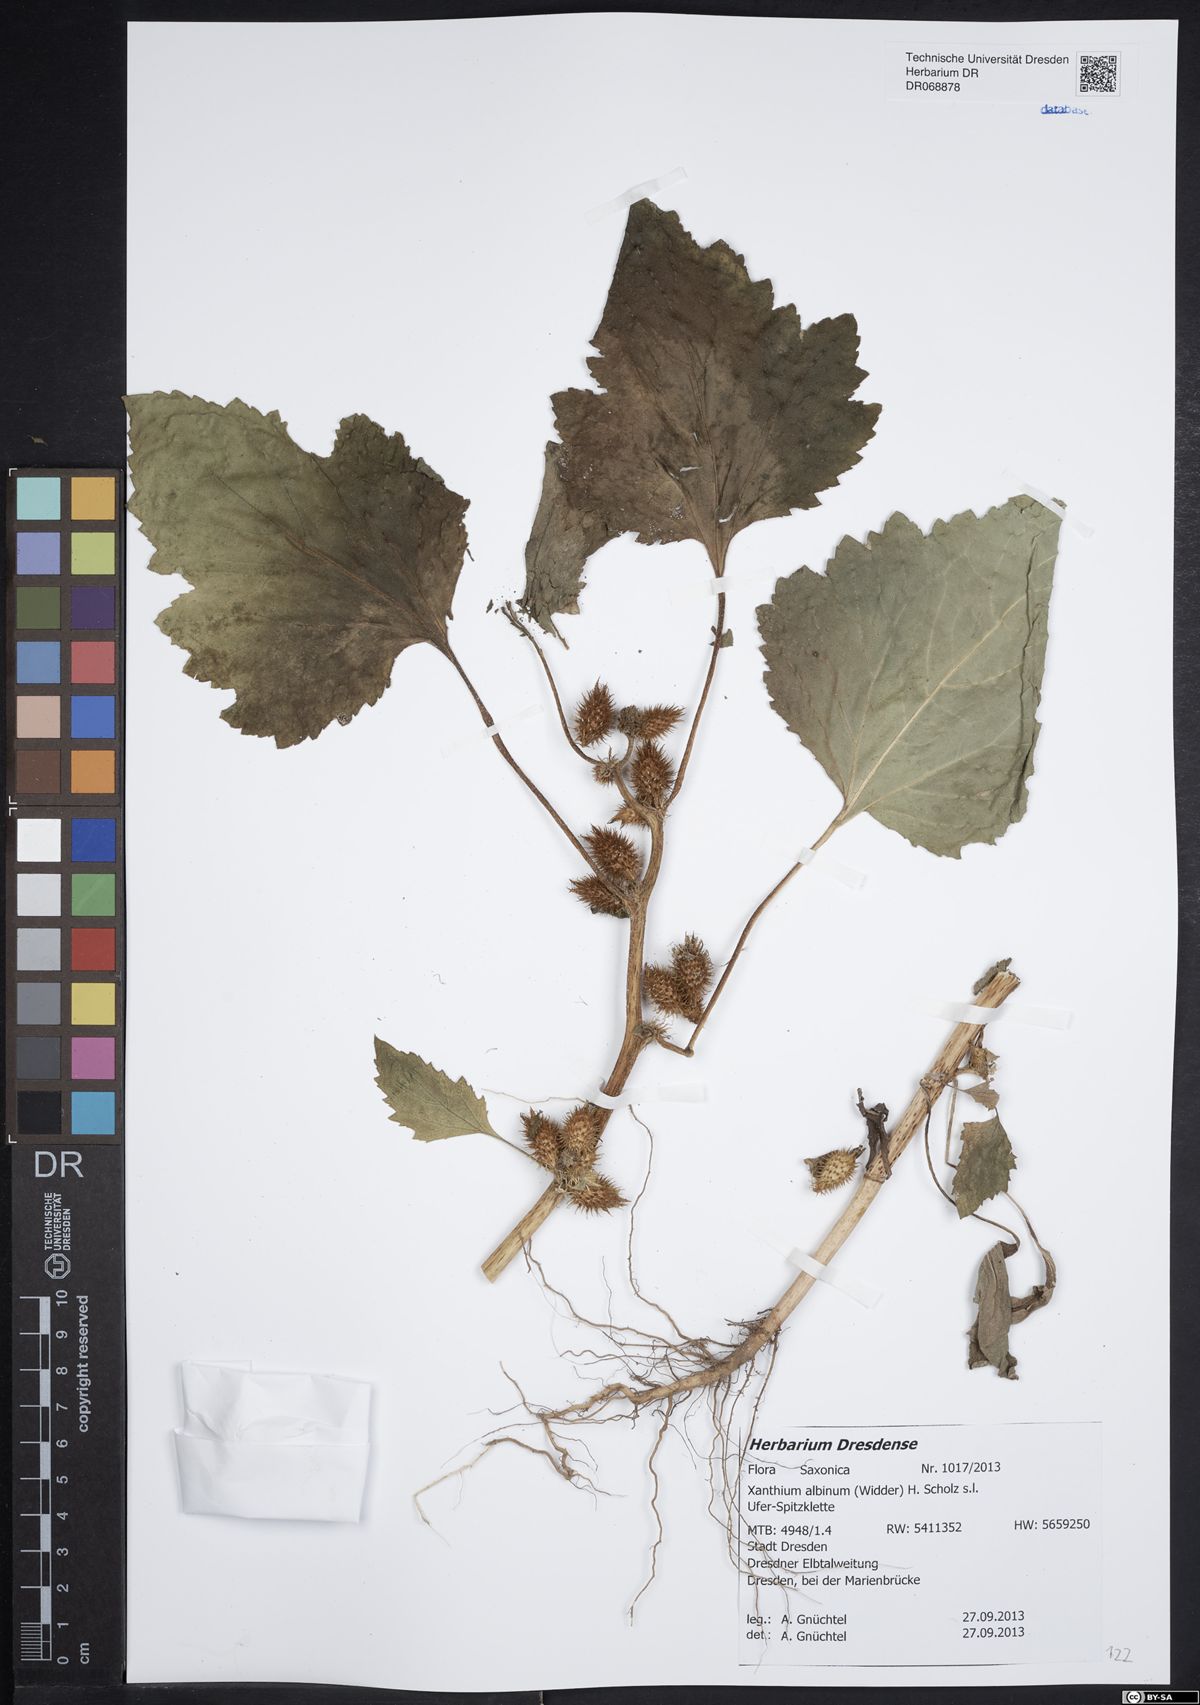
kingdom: Plantae
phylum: Tracheophyta
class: Magnoliopsida
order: Asterales
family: Asteraceae
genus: Xanthium
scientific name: Xanthium orientale
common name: Californian burr
